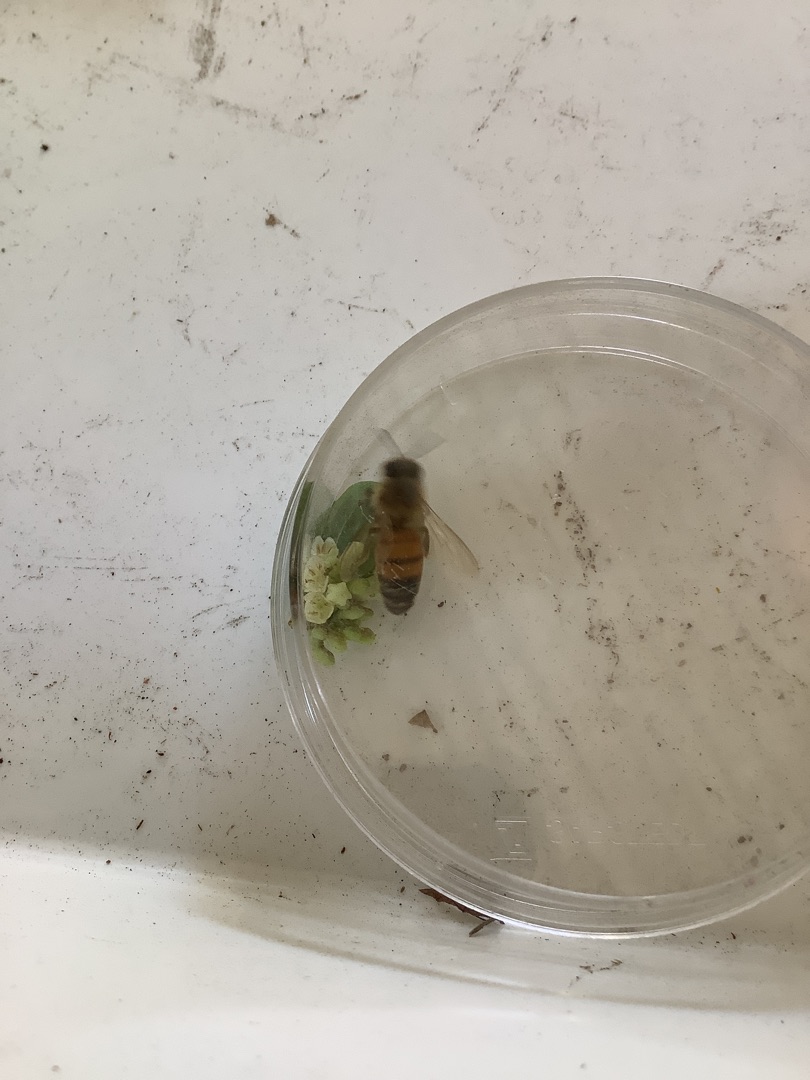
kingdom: Animalia
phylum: Arthropoda
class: Insecta
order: Hymenoptera
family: Apidae
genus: Apis
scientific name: Apis mellifera
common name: Honningbi
